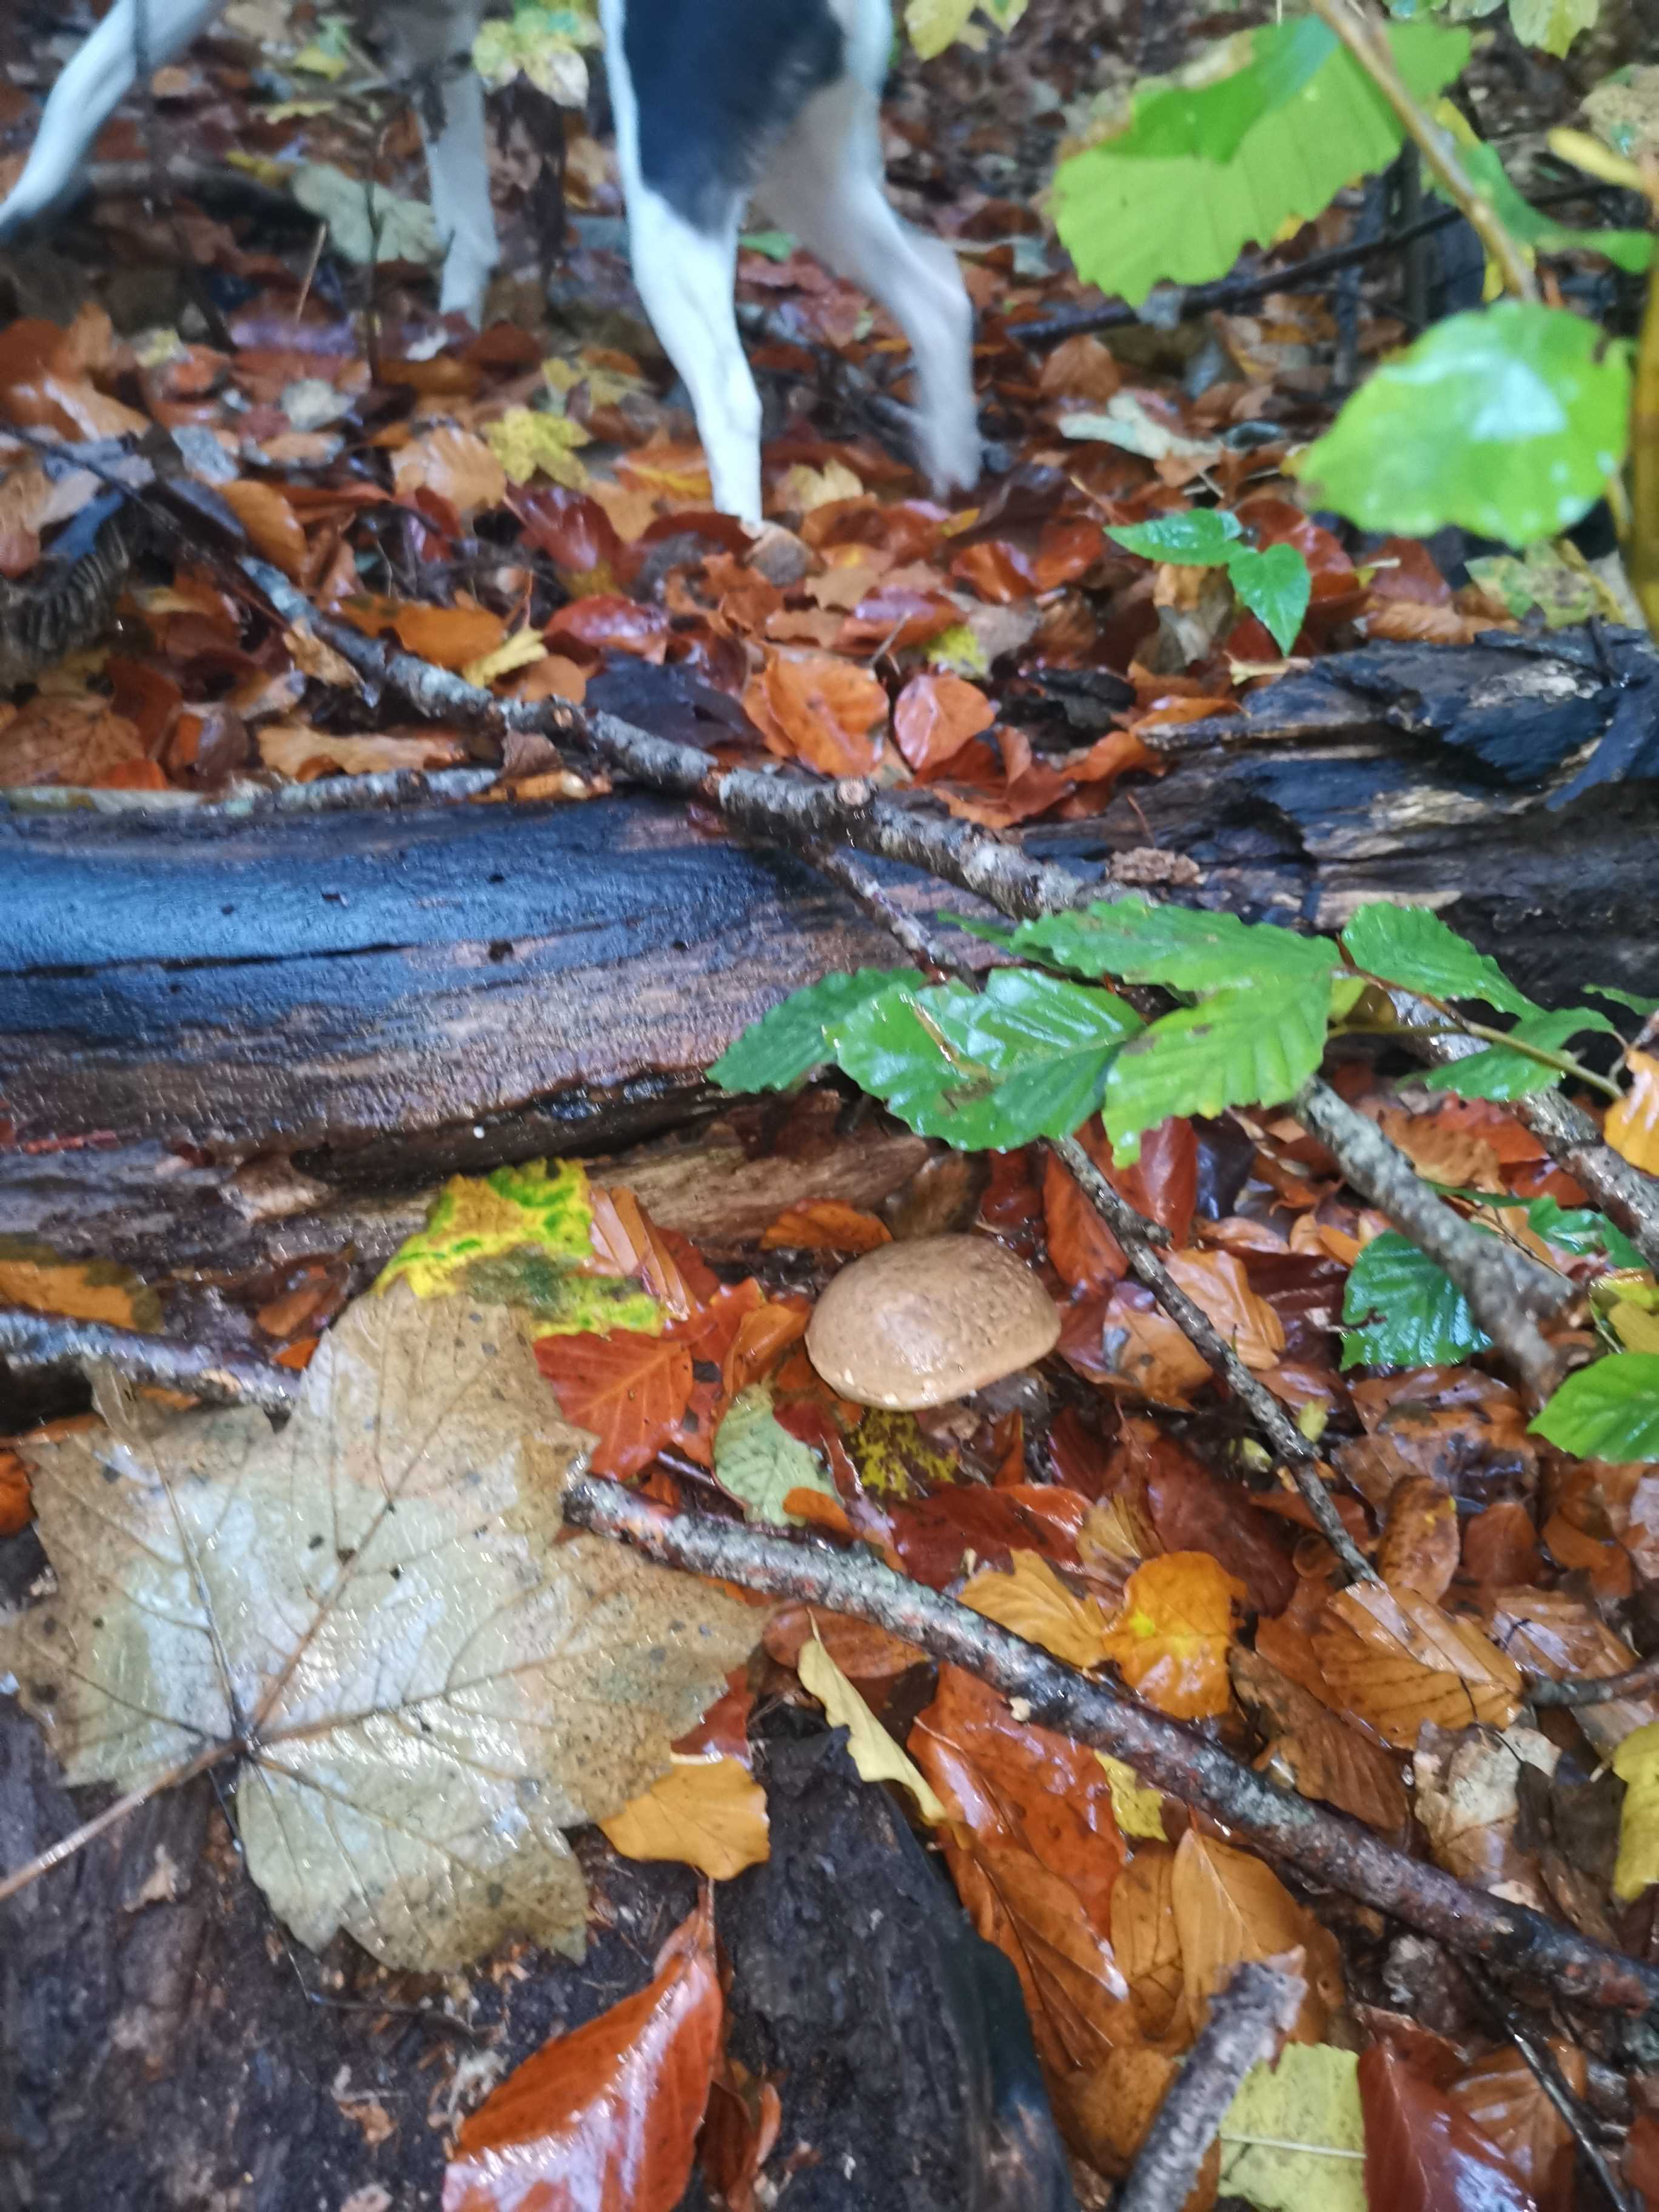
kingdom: Fungi
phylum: Basidiomycota
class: Agaricomycetes
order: Boletales
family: Boletaceae
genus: Xerocomellus
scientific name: Xerocomellus
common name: dværgrørhat
